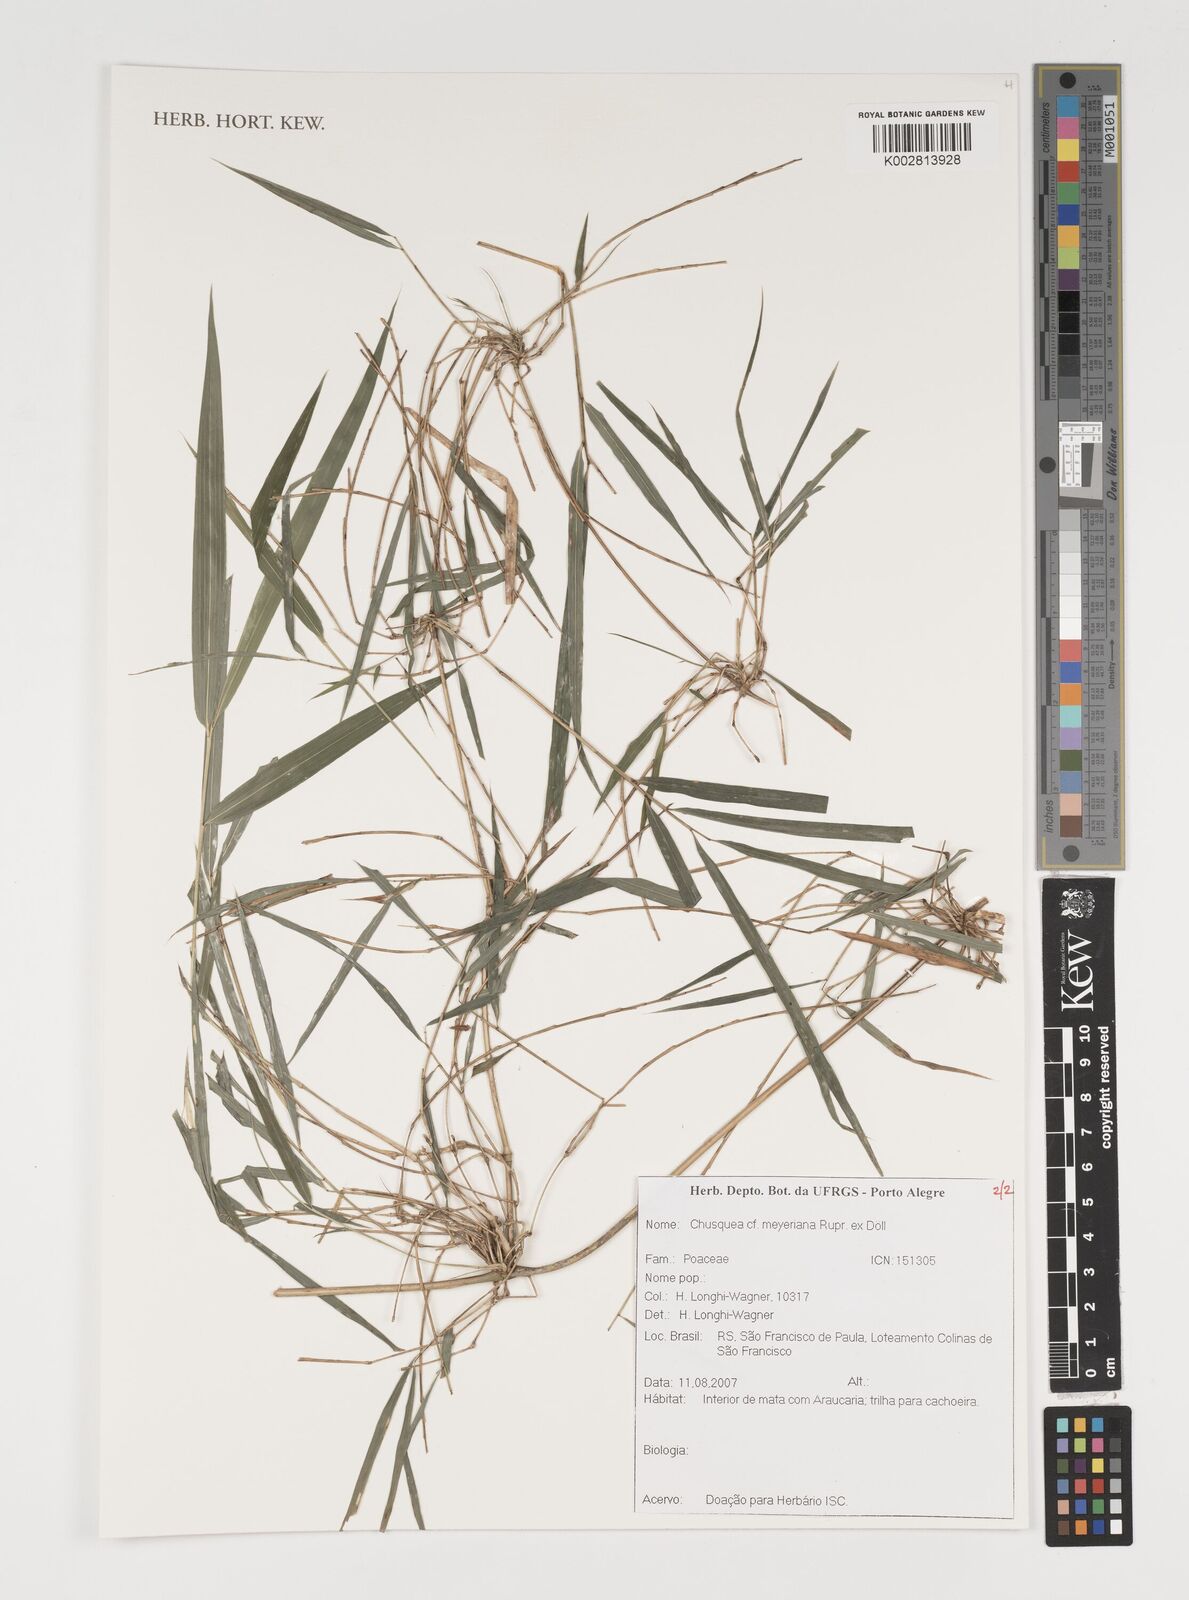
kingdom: Plantae
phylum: Tracheophyta
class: Liliopsida
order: Poales
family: Poaceae
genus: Chusquea
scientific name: Chusquea meyeriana
